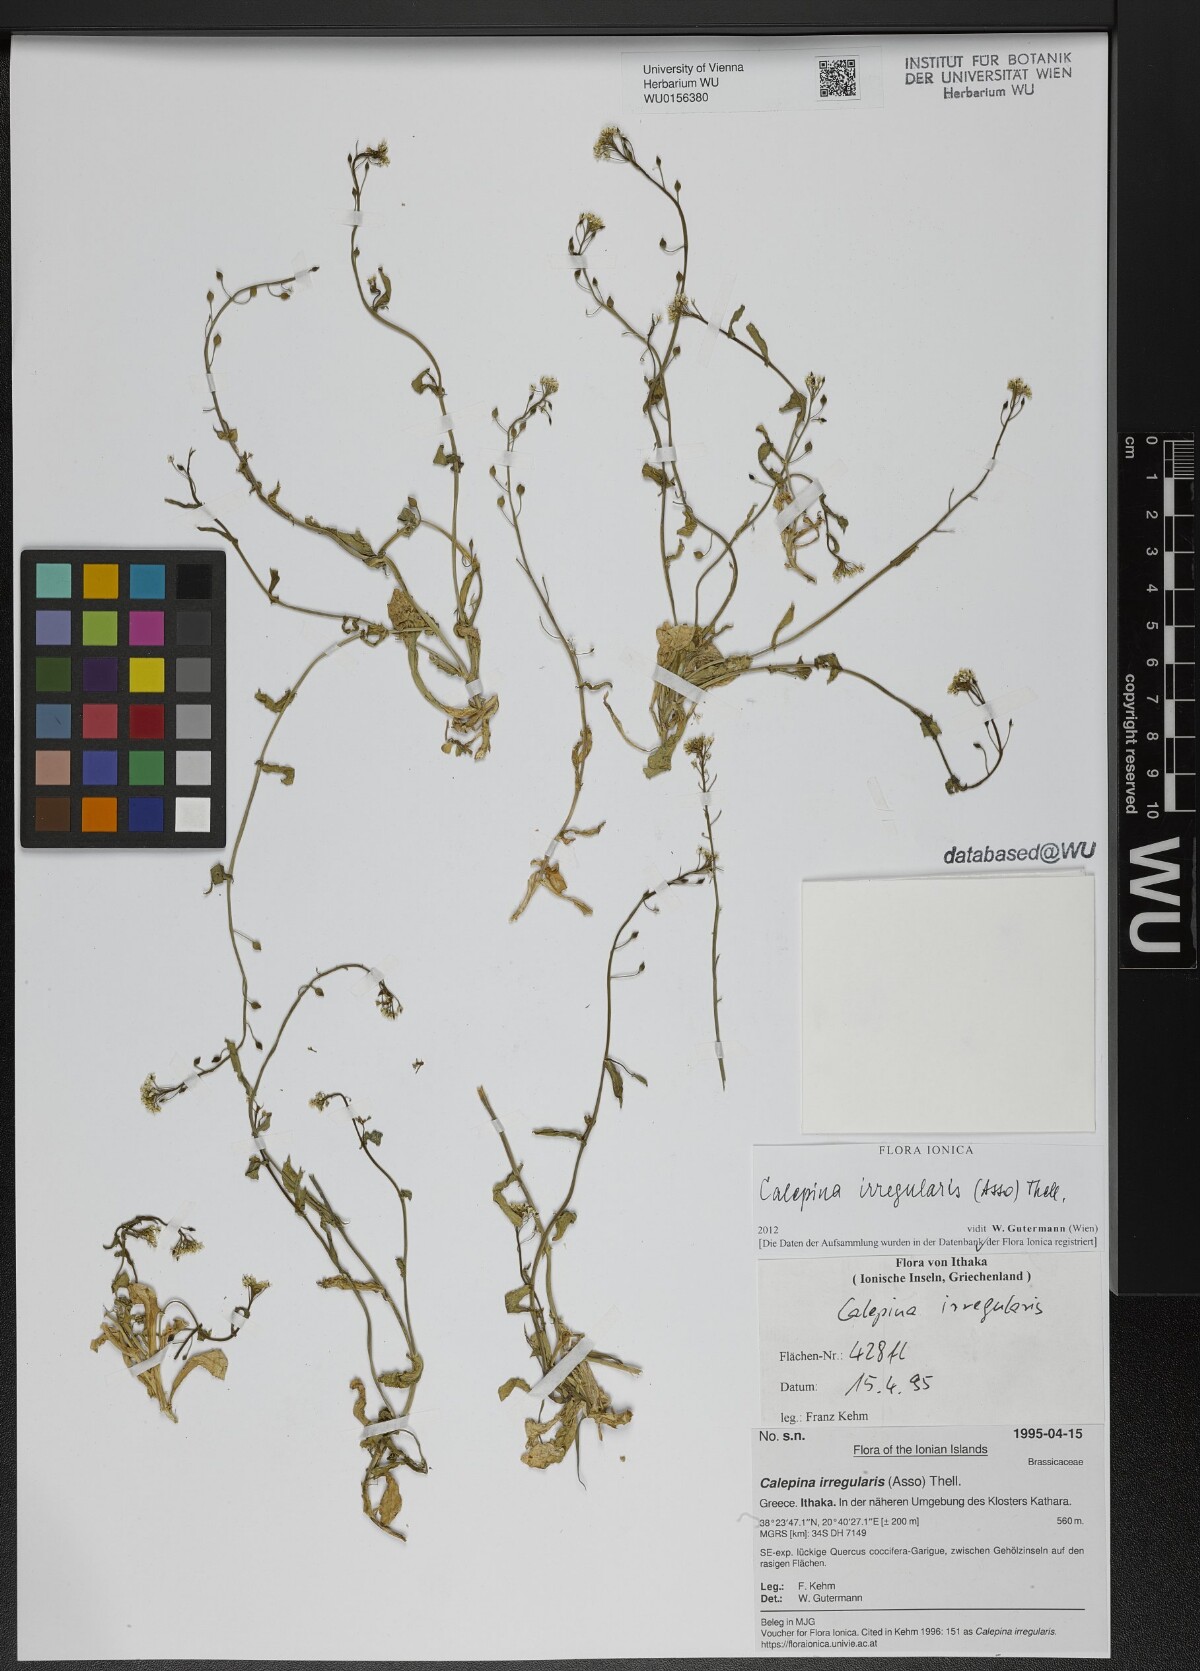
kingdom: Plantae
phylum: Tracheophyta
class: Magnoliopsida
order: Brassicales
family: Brassicaceae
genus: Calepina
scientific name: Calepina irregularis
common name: White ballmustard
